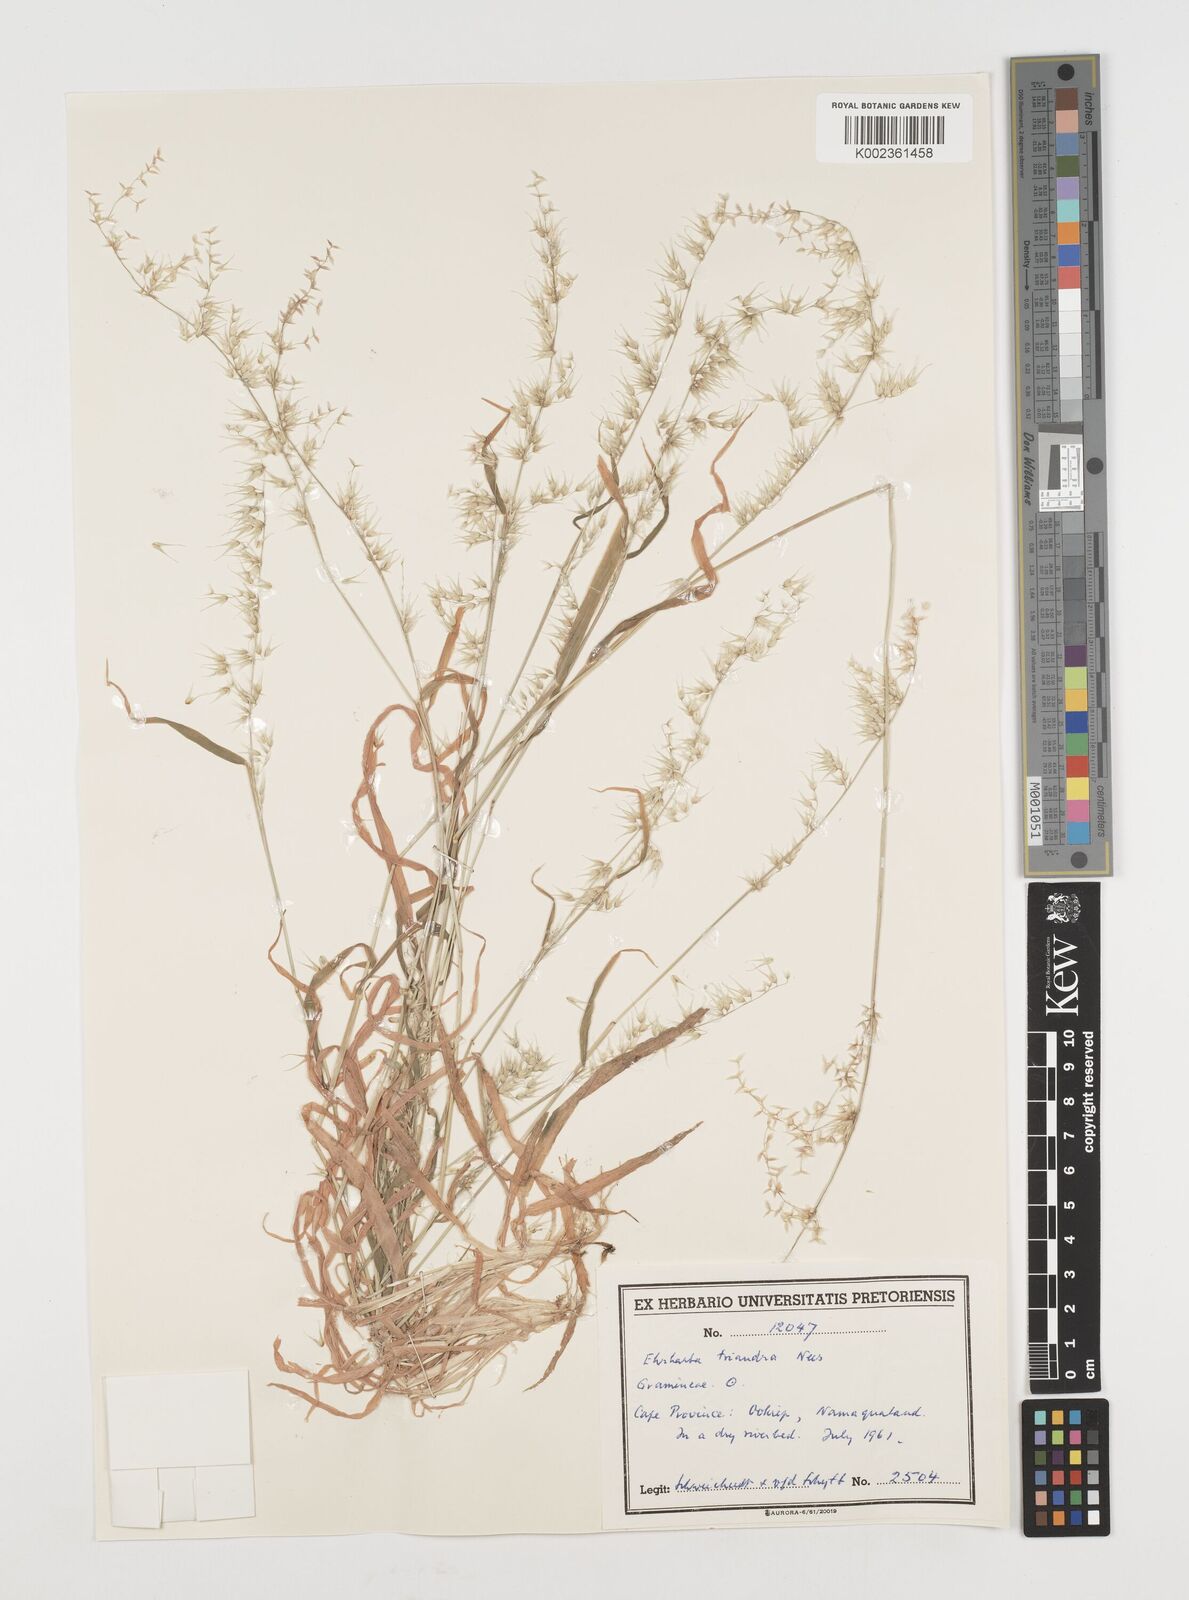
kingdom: Plantae
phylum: Tracheophyta
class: Liliopsida
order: Poales
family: Poaceae
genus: Ehrharta
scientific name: Ehrharta triandra
